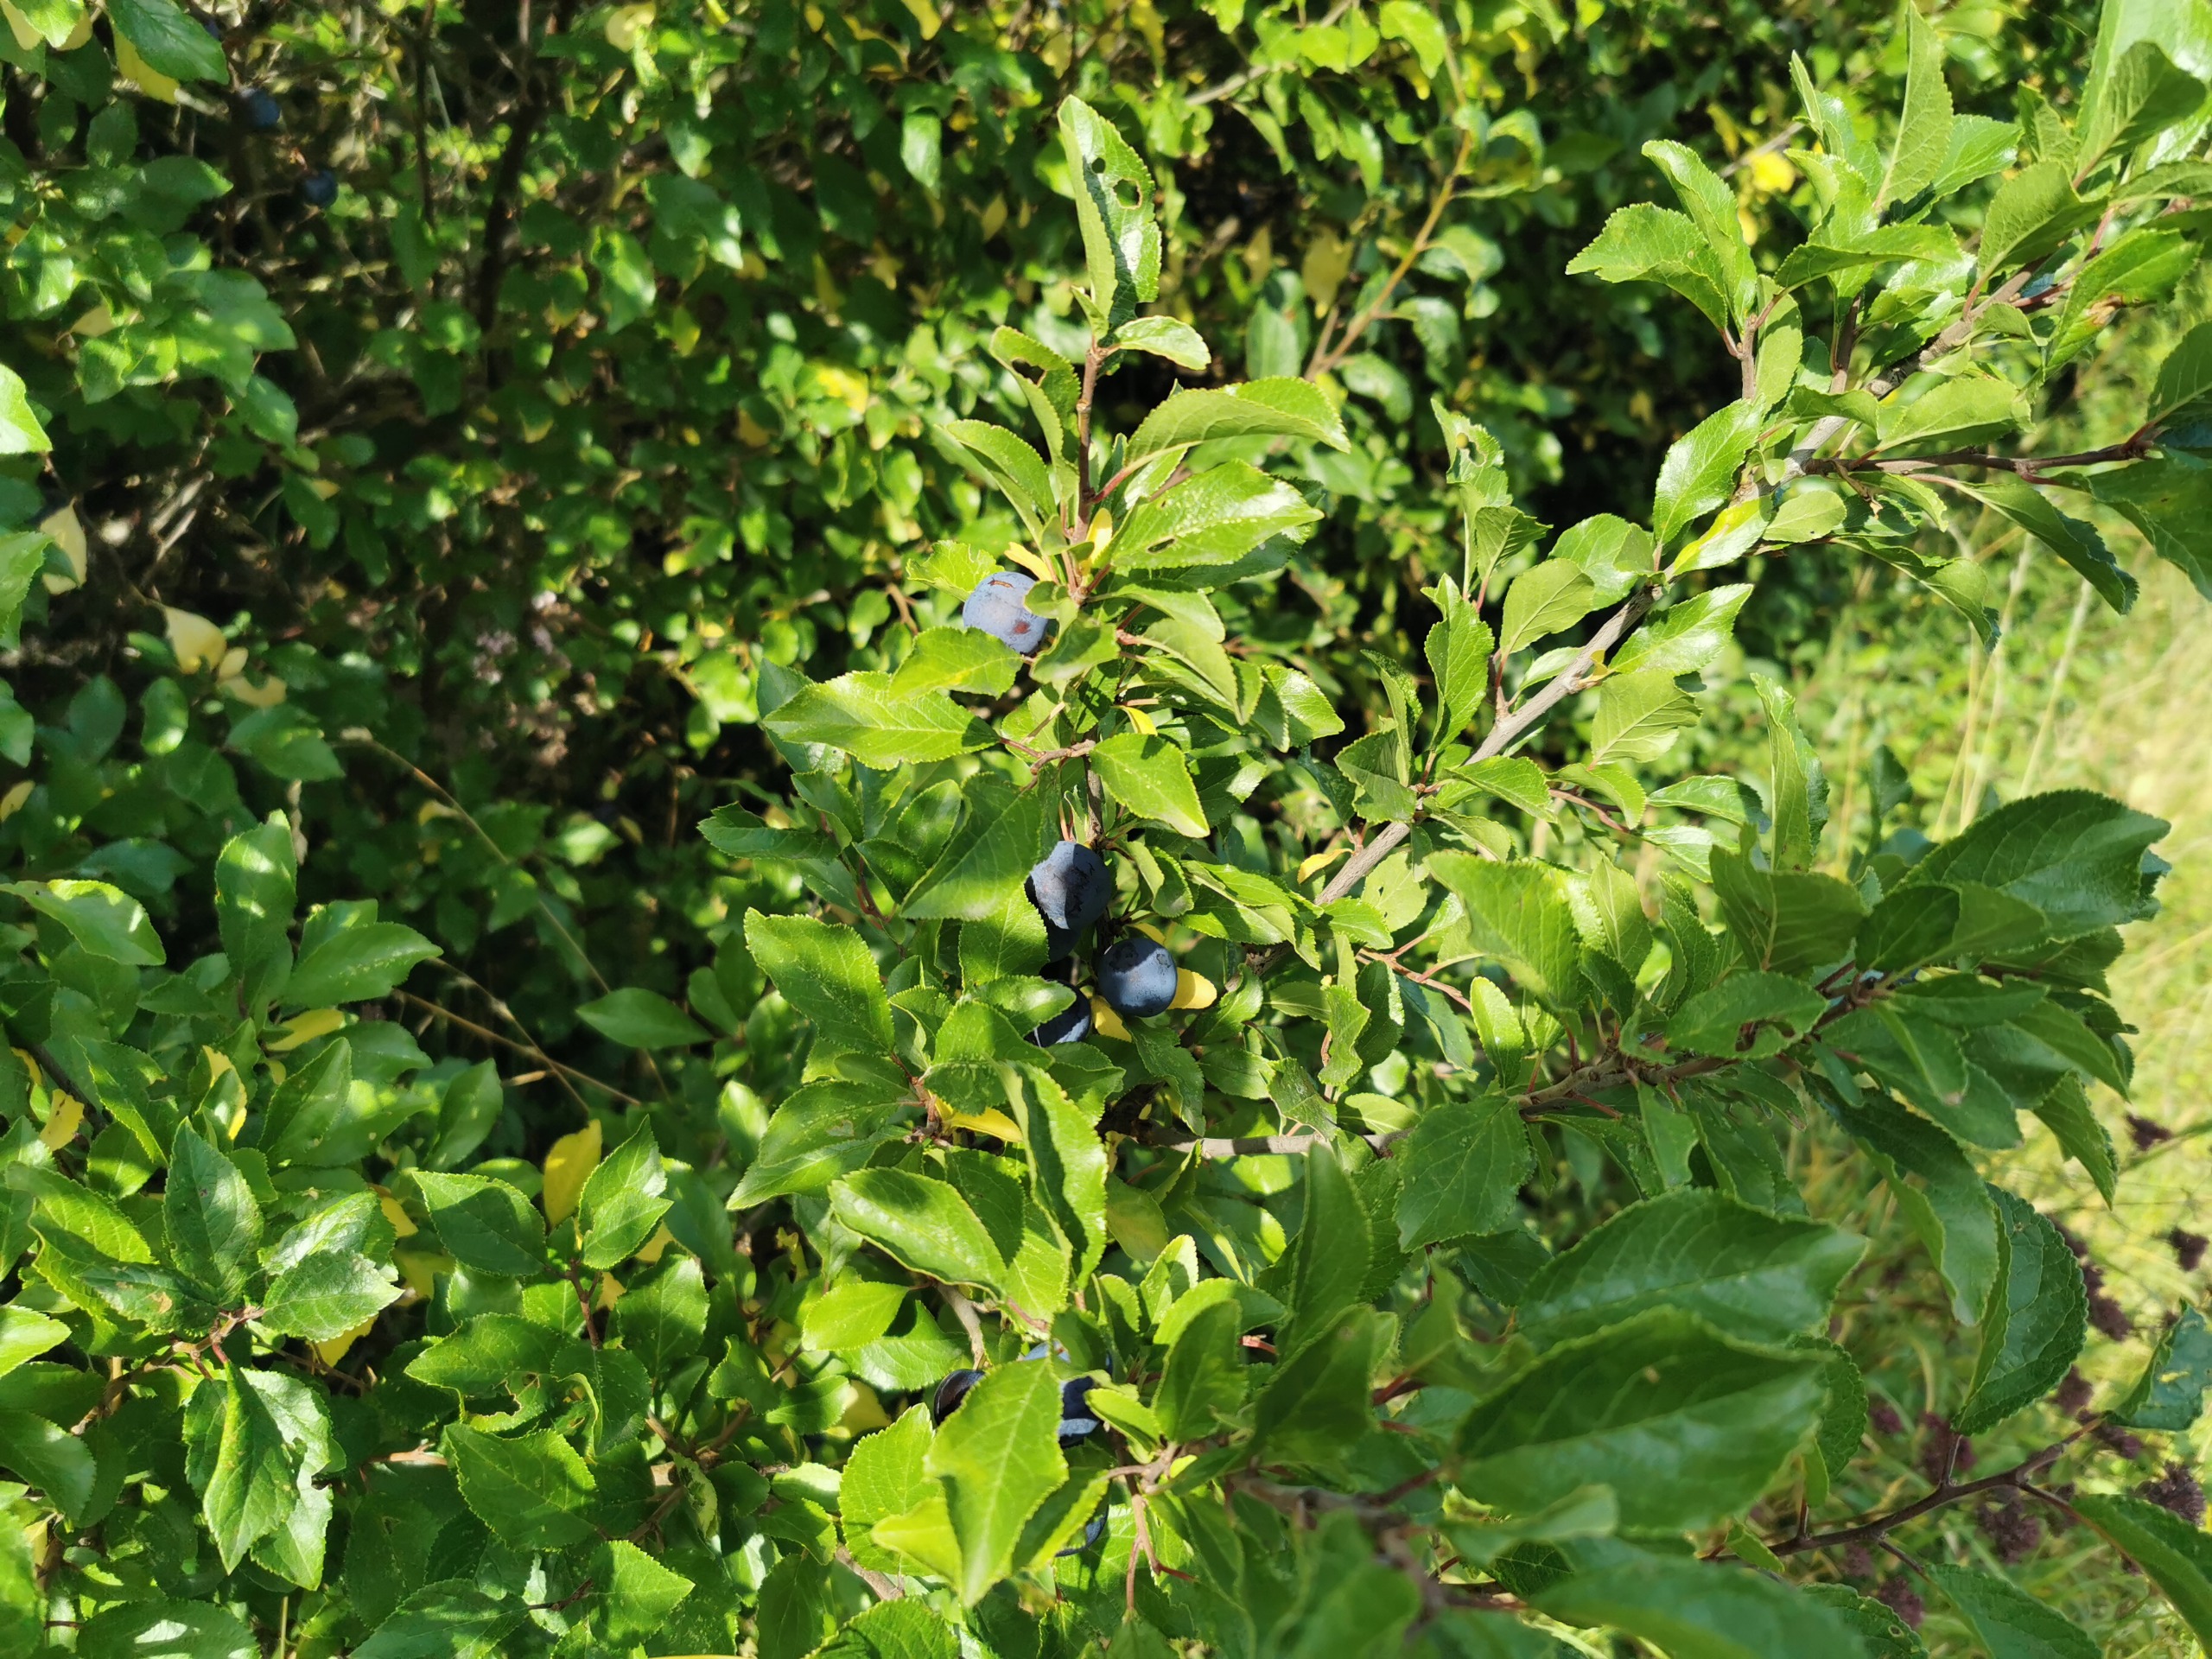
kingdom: Plantae
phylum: Tracheophyta
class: Magnoliopsida
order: Rosales
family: Rosaceae
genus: Prunus
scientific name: Prunus domestica
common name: Kræge
